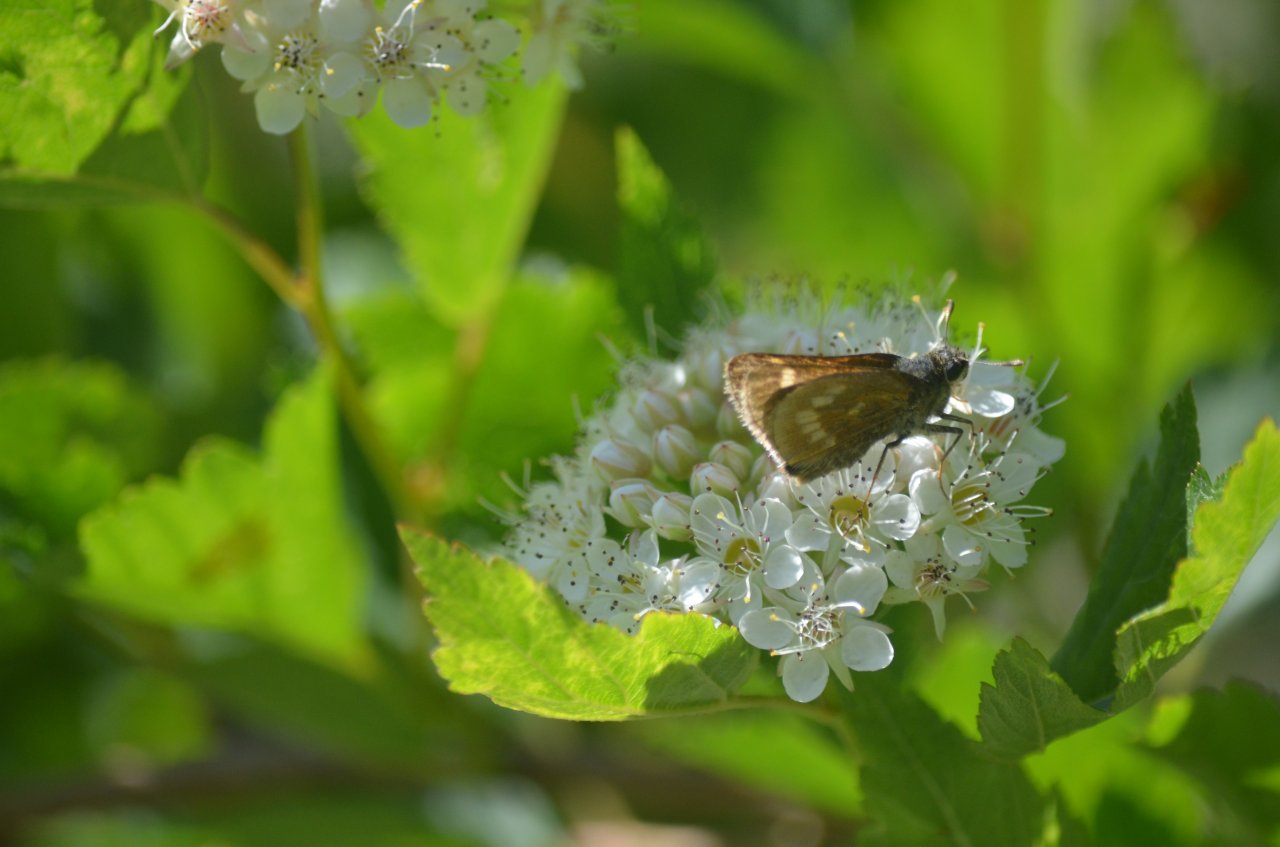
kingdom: Animalia
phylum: Arthropoda
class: Insecta
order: Lepidoptera
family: Hesperiidae
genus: Polites
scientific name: Polites
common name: Long Dash Skipper
